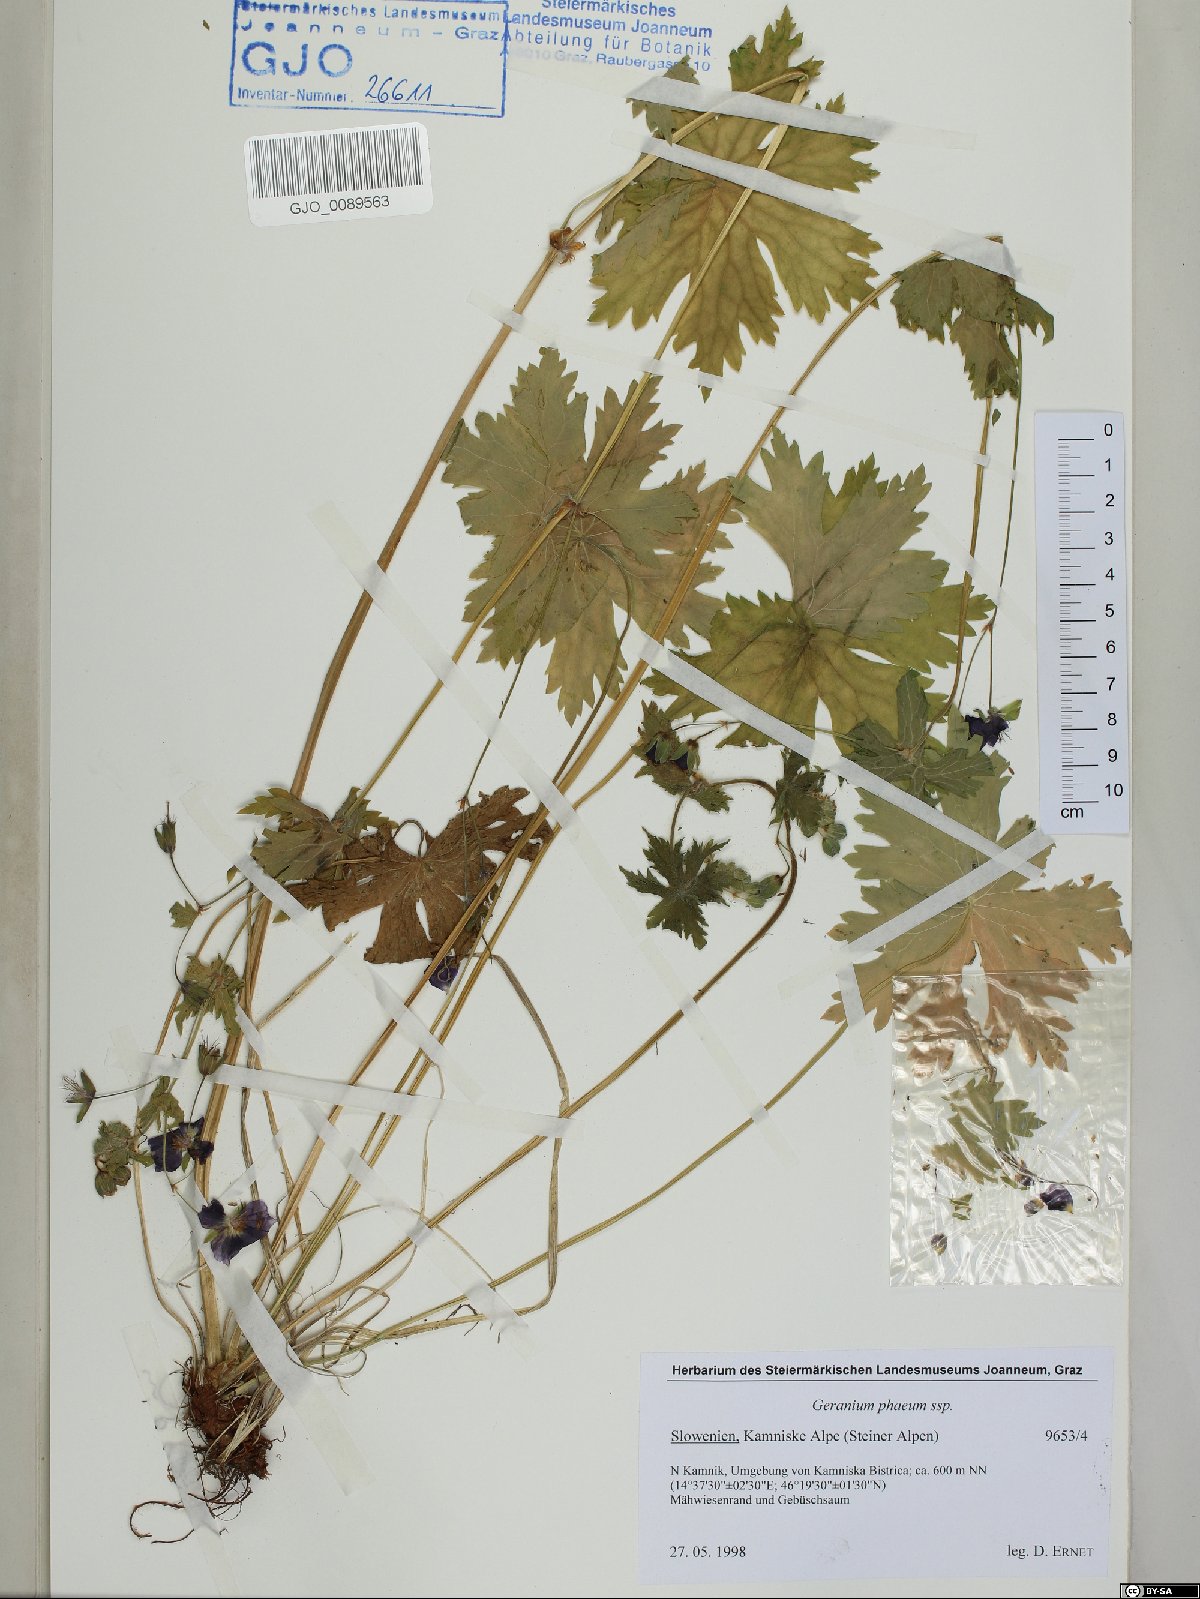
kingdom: Plantae
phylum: Tracheophyta
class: Magnoliopsida
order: Geraniales
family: Geraniaceae
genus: Geranium
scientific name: Geranium phaeum
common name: Dusky crane's-bill
